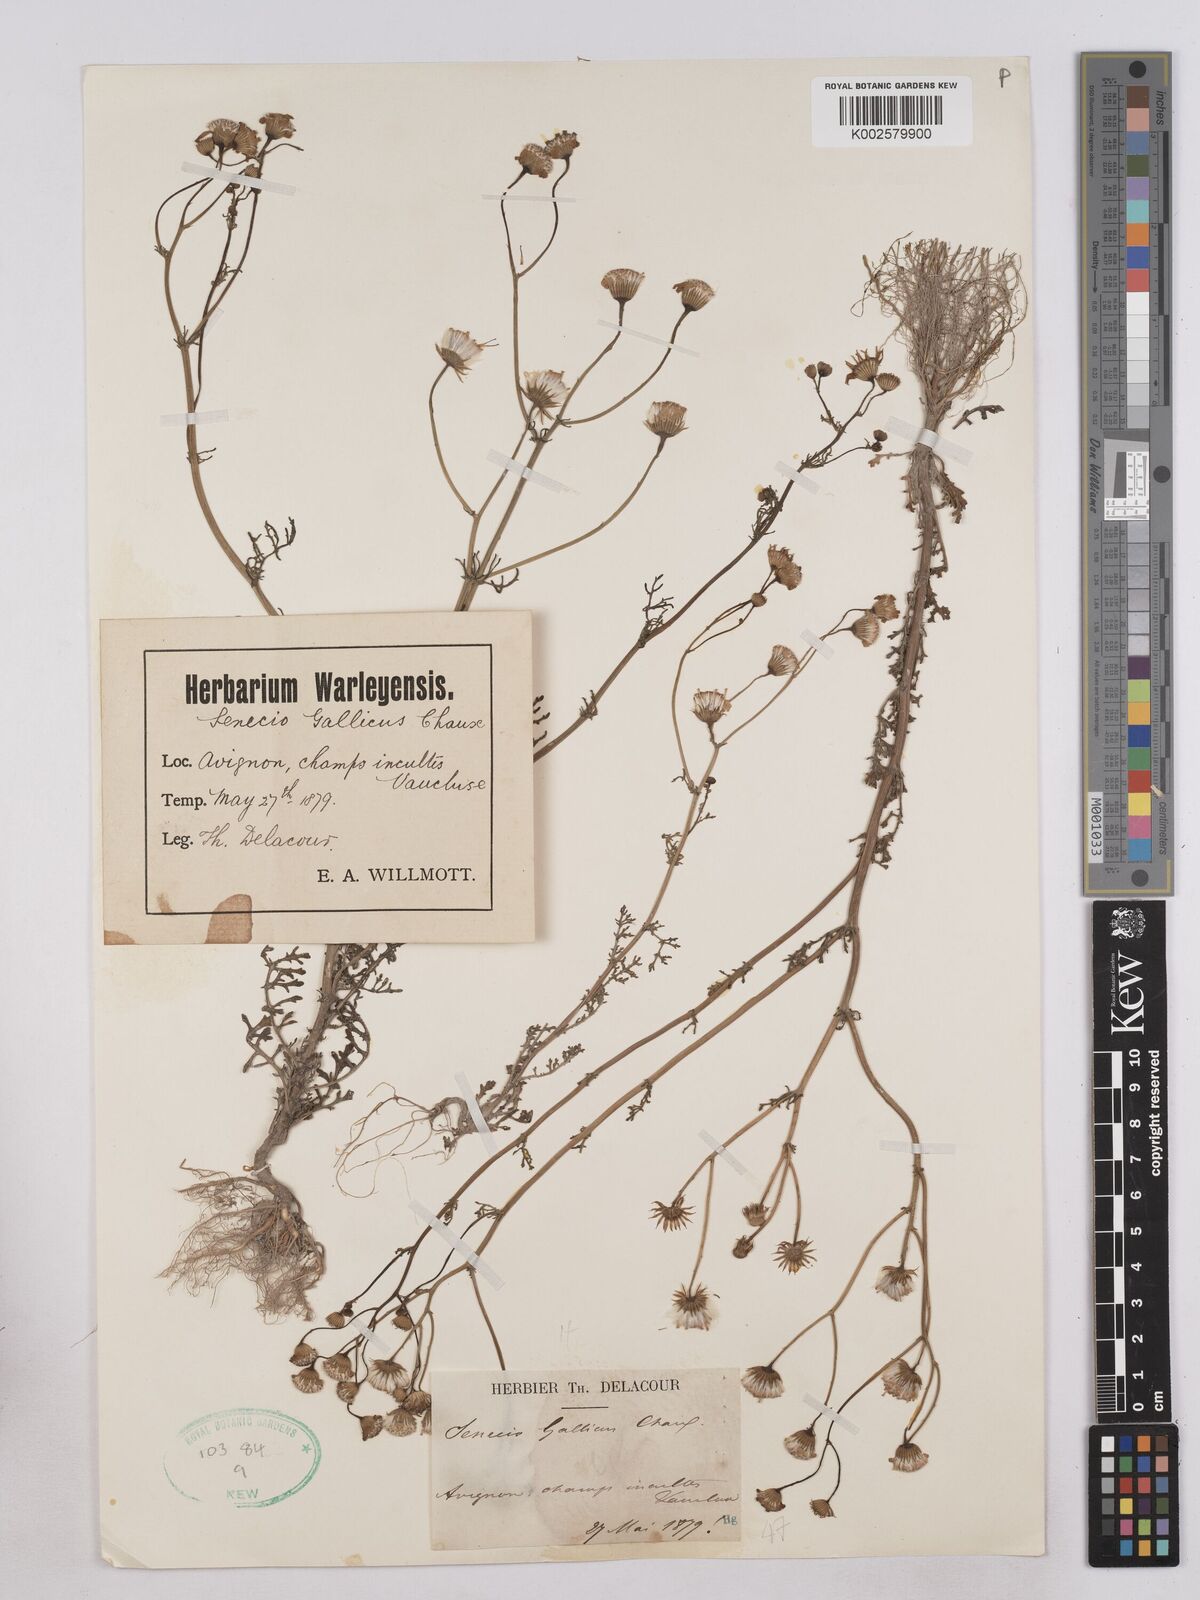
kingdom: Plantae
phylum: Tracheophyta
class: Magnoliopsida
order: Asterales
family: Asteraceae
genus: Senecio
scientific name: Senecio gallicus
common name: French groundsel
